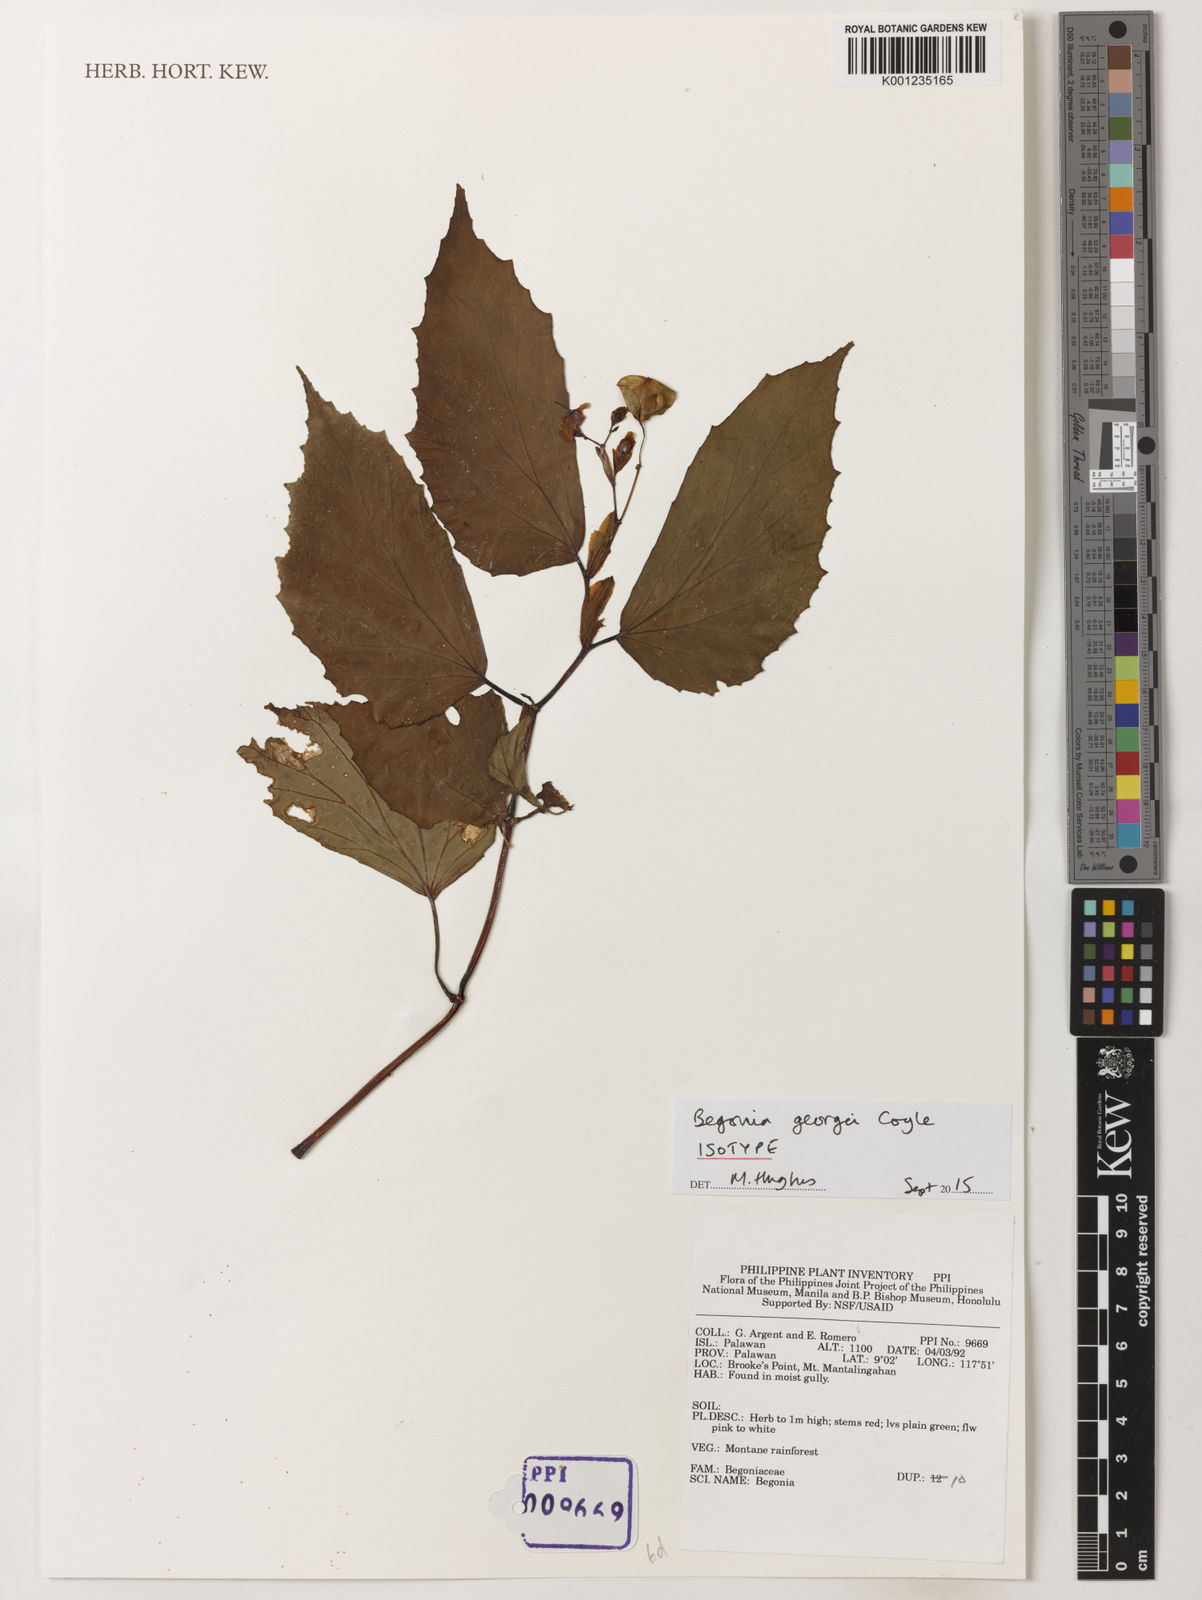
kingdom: Plantae
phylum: Tracheophyta
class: Magnoliopsida
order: Cucurbitales
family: Begoniaceae
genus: Begonia
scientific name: Begonia georgei
